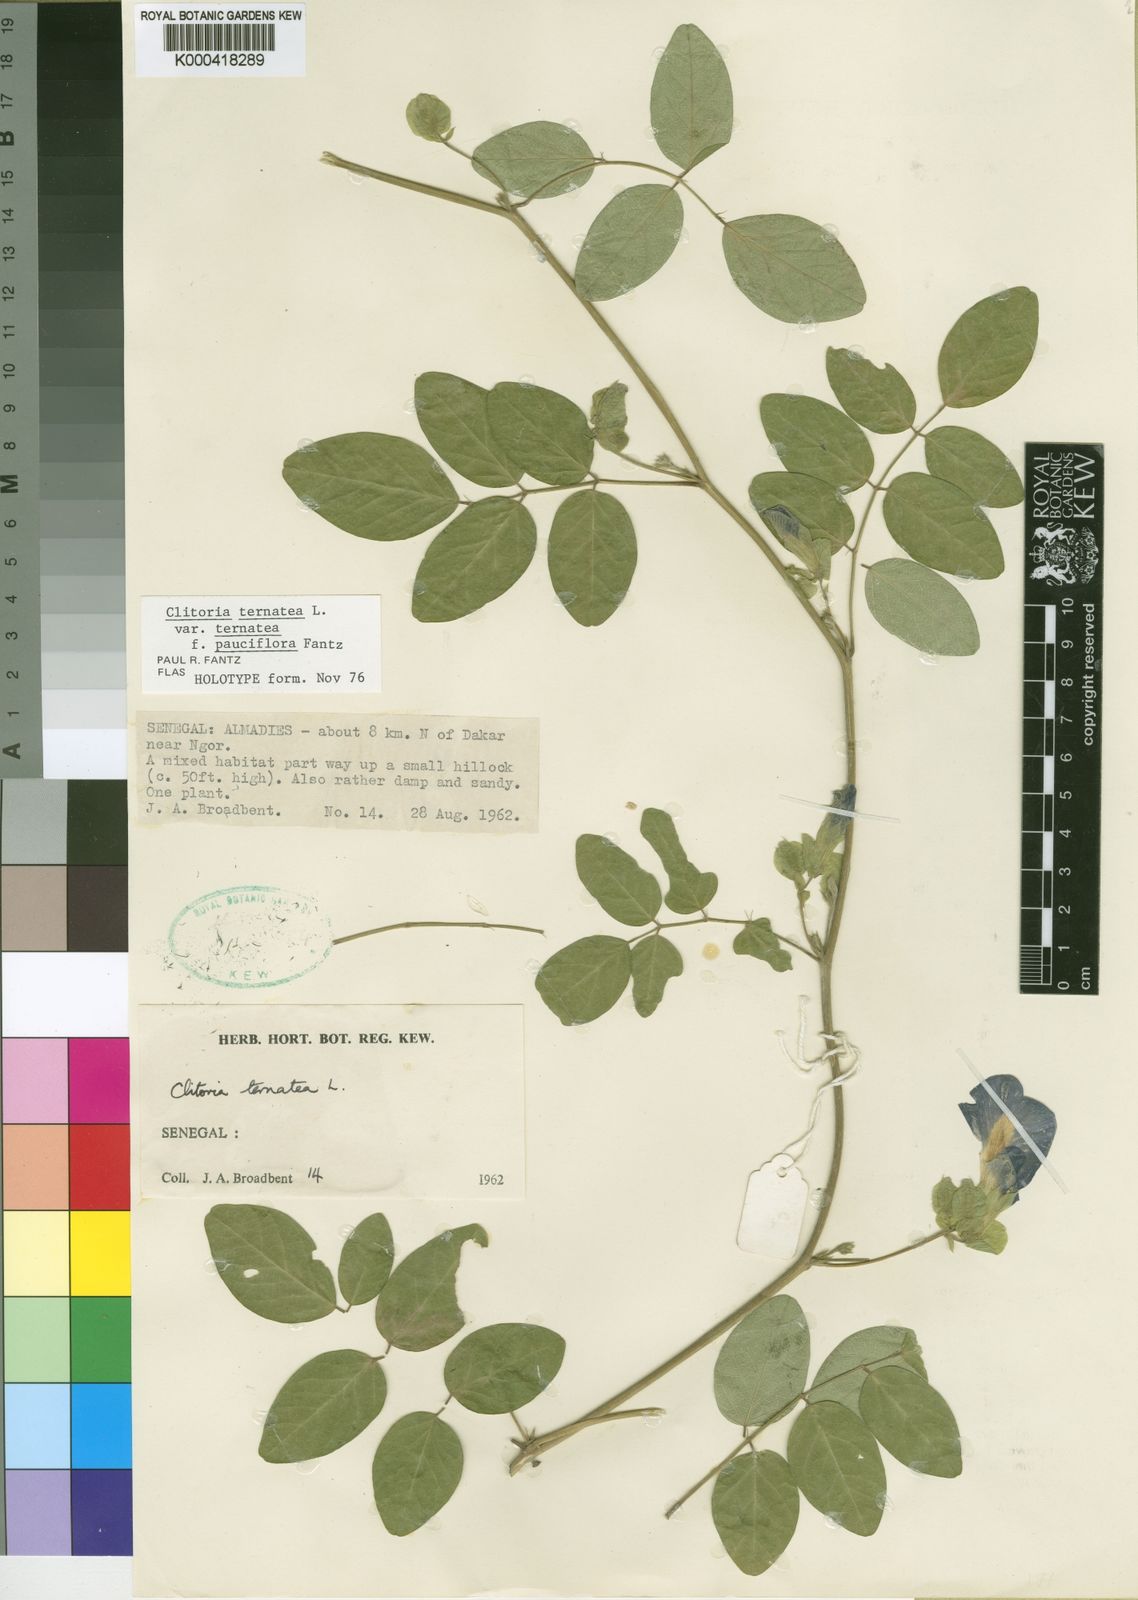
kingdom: Plantae
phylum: Tracheophyta
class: Magnoliopsida
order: Fabales
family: Fabaceae
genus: Clitoria
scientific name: Clitoria ternatea
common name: Asian pigeonwings
